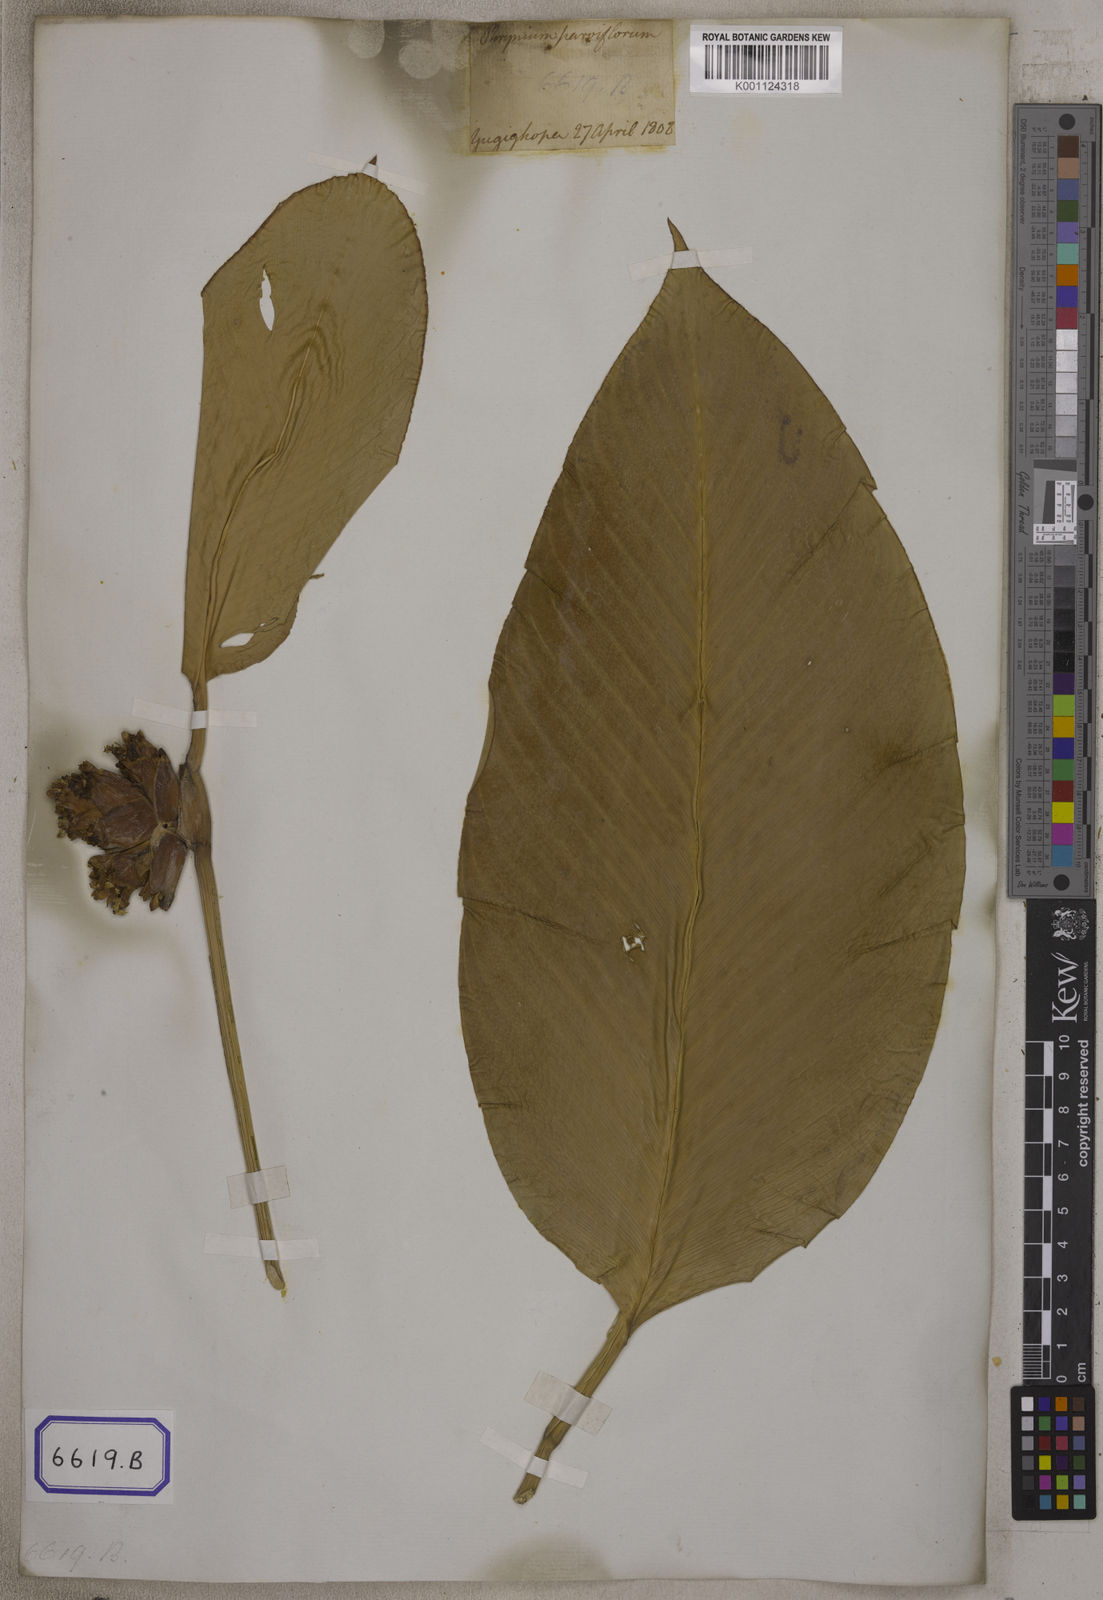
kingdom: Plantae
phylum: Tracheophyta
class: Liliopsida
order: Zingiberales
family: Marantaceae
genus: Phrynium
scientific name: Phrynium pubinerve
